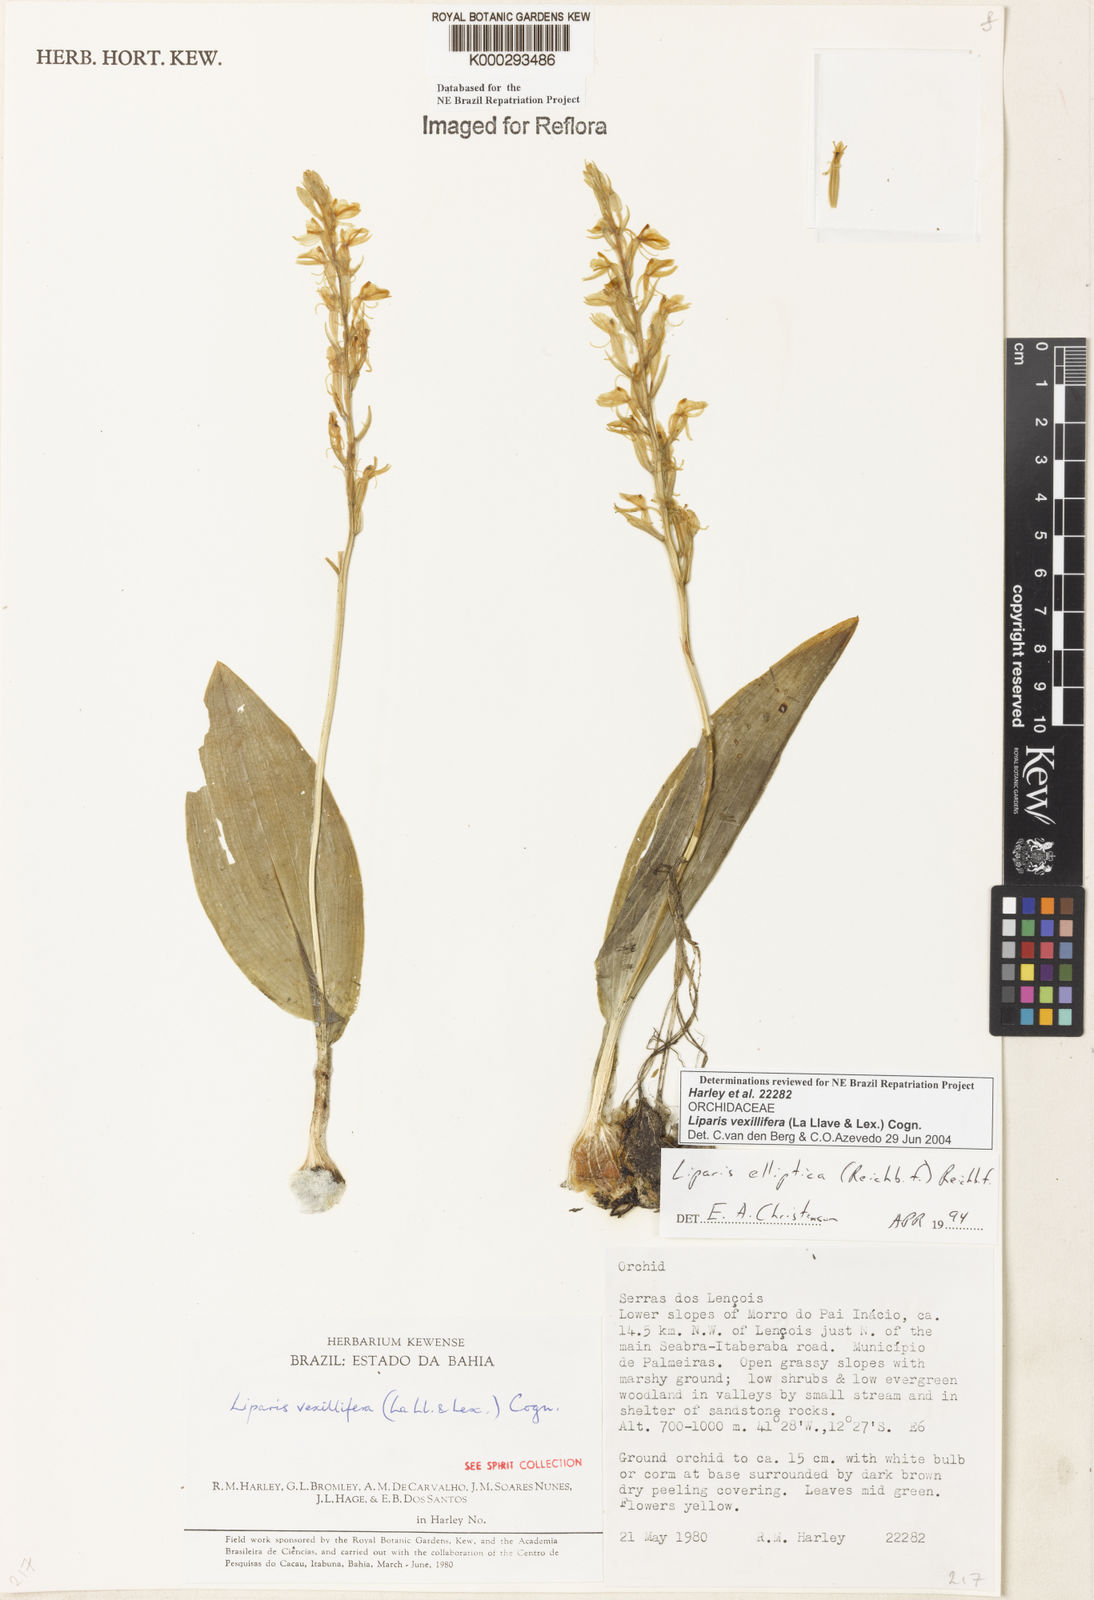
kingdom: Plantae
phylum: Tracheophyta
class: Liliopsida
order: Asparagales
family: Orchidaceae
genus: Liparis
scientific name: Liparis vexillifera
